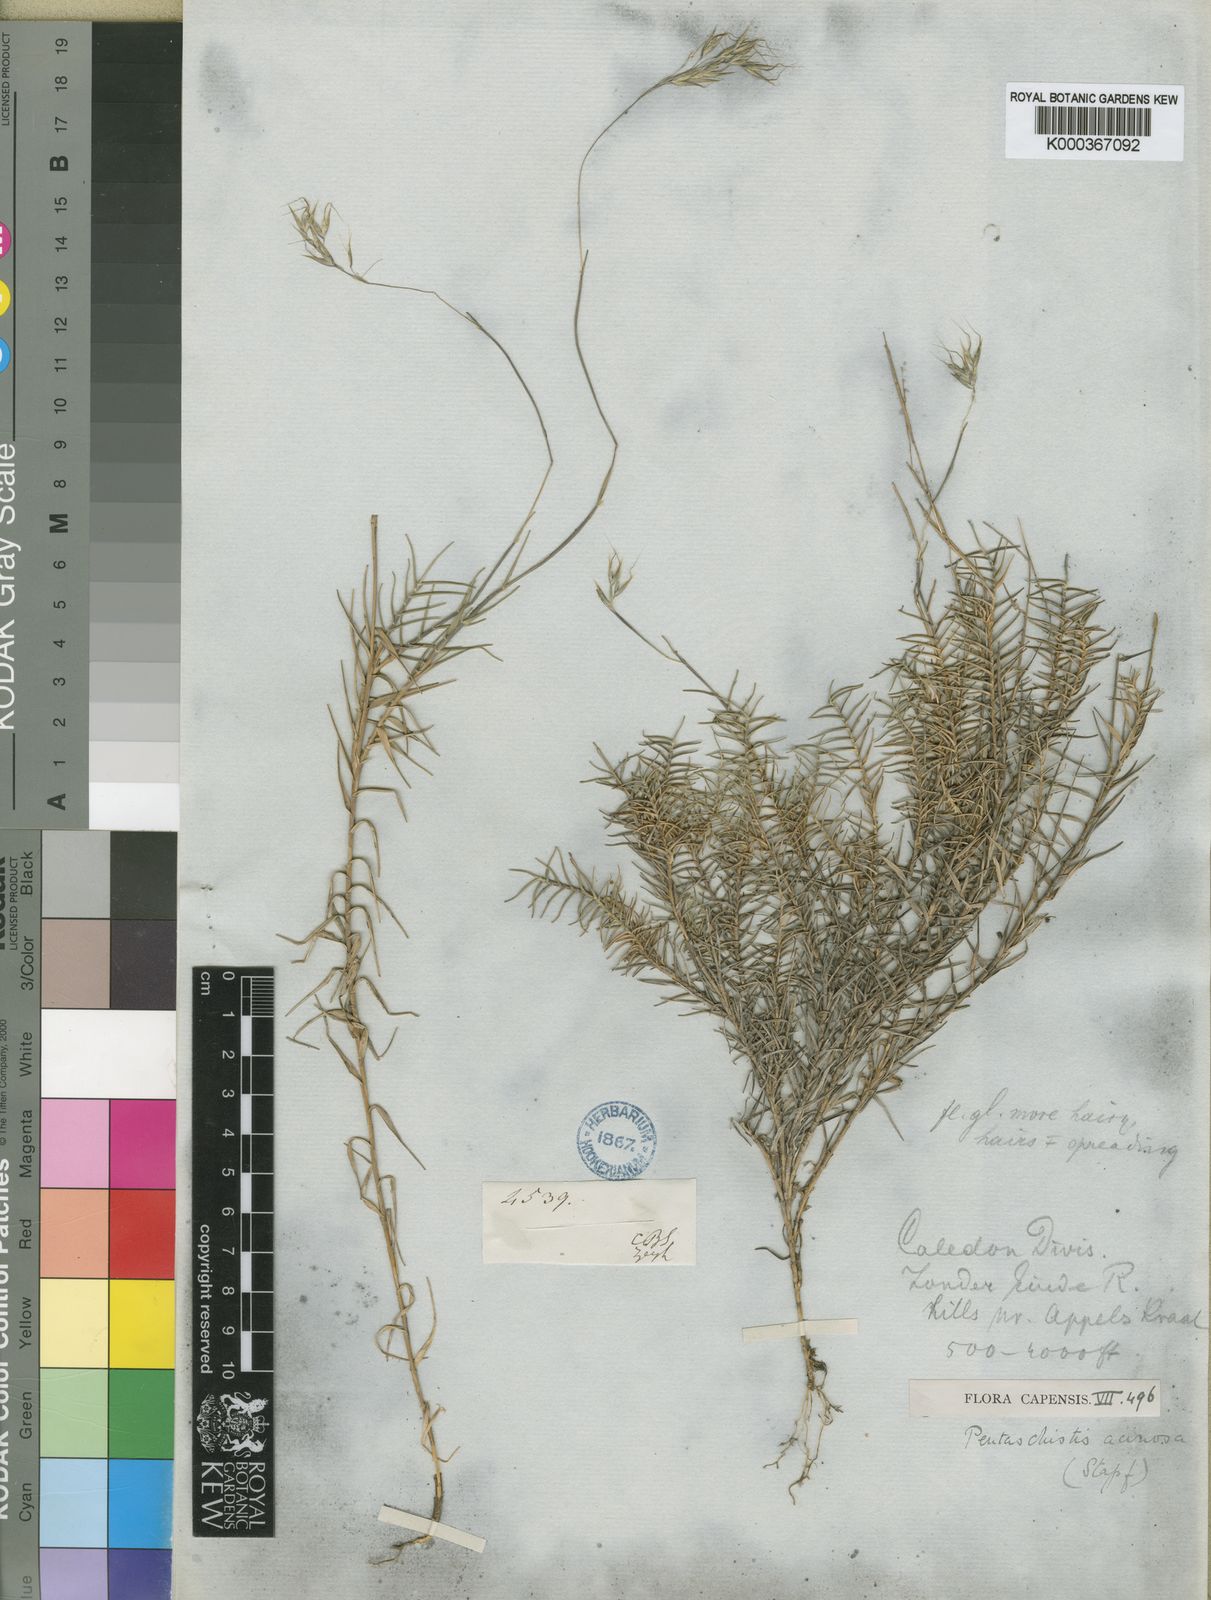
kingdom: Plantae
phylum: Tracheophyta
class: Liliopsida
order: Poales
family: Poaceae
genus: Pentameris
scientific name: Pentameris acinosa
